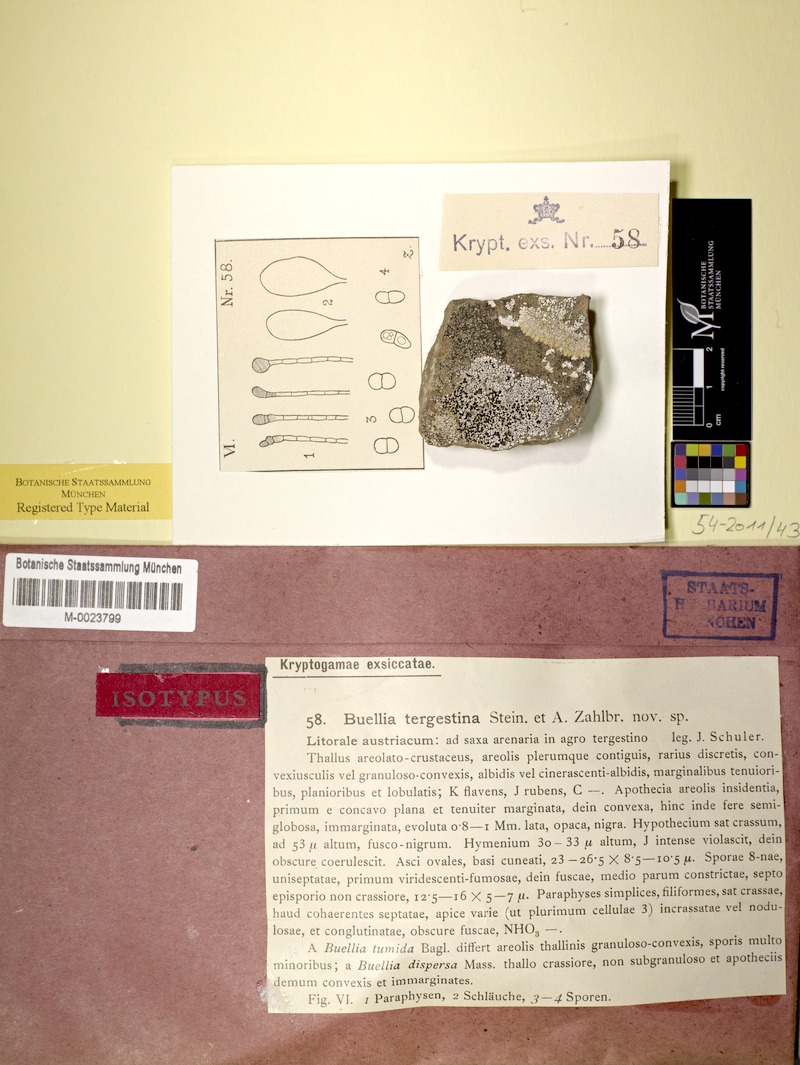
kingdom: Fungi
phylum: Ascomycota
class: Lecanoromycetes
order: Caliciales
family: Caliciaceae
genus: Buellia
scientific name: Buellia dispersa
